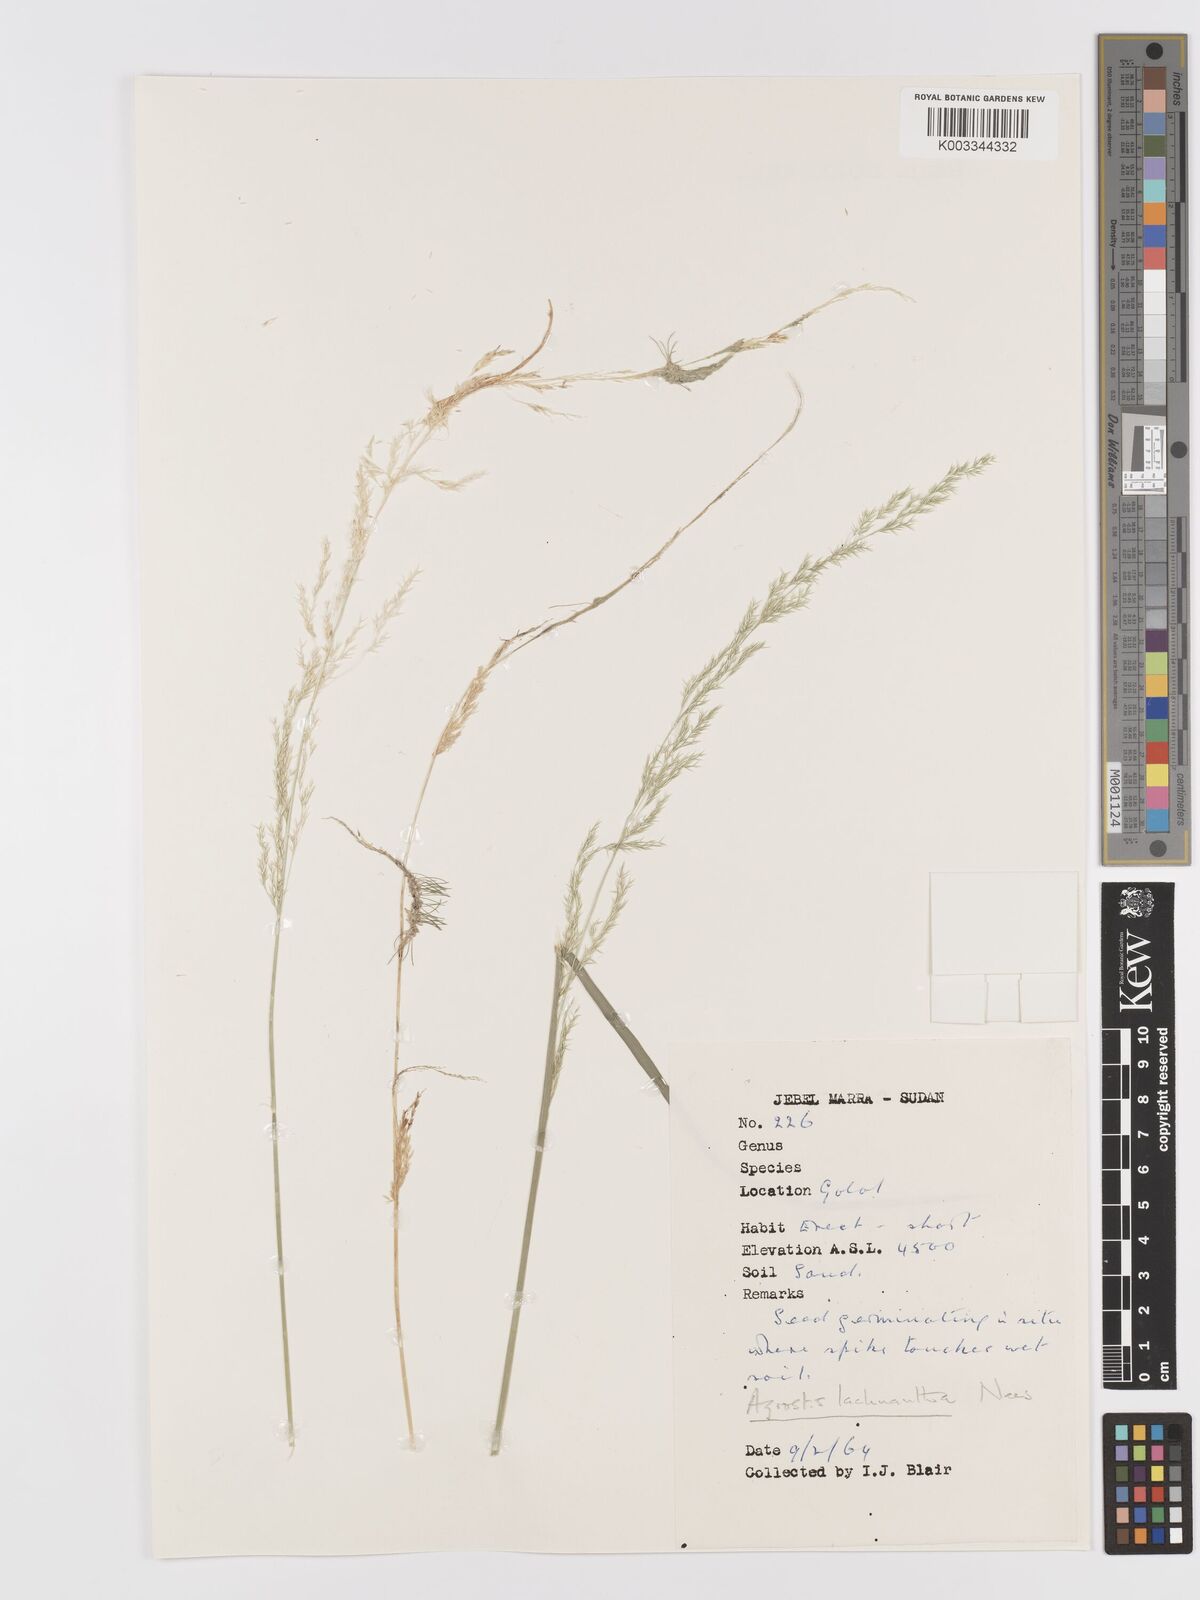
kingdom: Plantae
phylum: Tracheophyta
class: Liliopsida
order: Poales
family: Poaceae
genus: Lachnagrostis
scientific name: Lachnagrostis lachnantha
